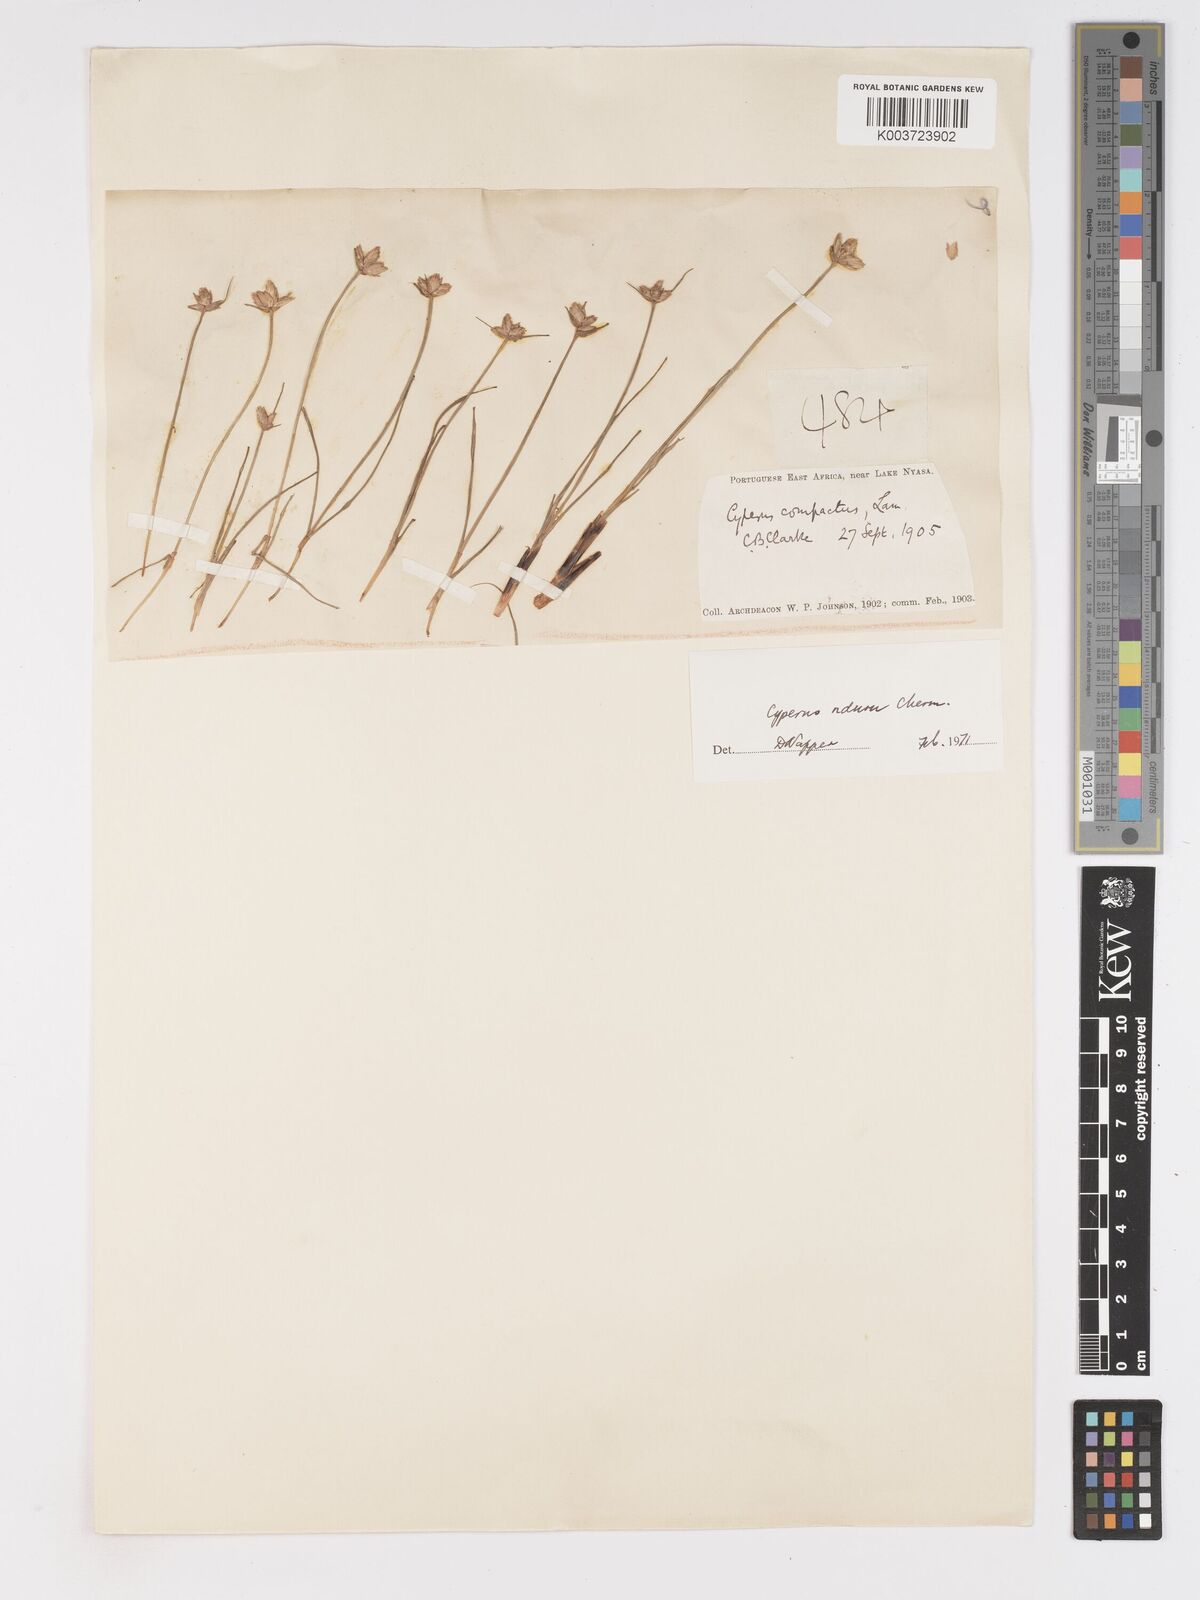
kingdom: Plantae
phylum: Tracheophyta
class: Liliopsida
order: Poales
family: Cyperaceae
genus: Cyperus
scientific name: Cyperus nduru
